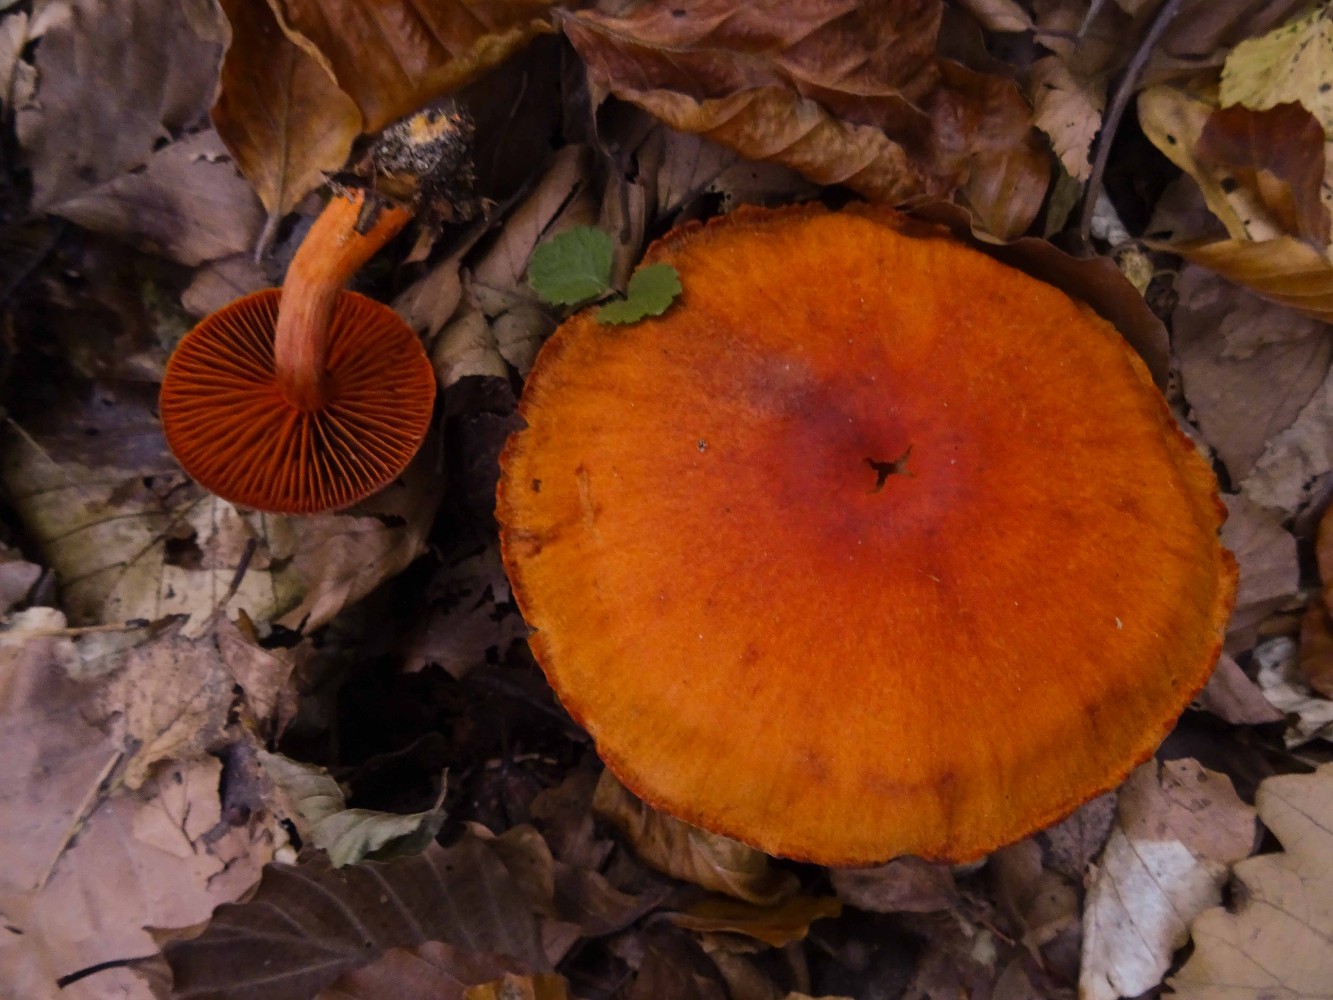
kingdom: Fungi
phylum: Basidiomycota
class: Agaricomycetes
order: Agaricales
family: Cortinariaceae
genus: Cortinarius
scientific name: Cortinarius cinnabarinus
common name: cinnober-slørhat
